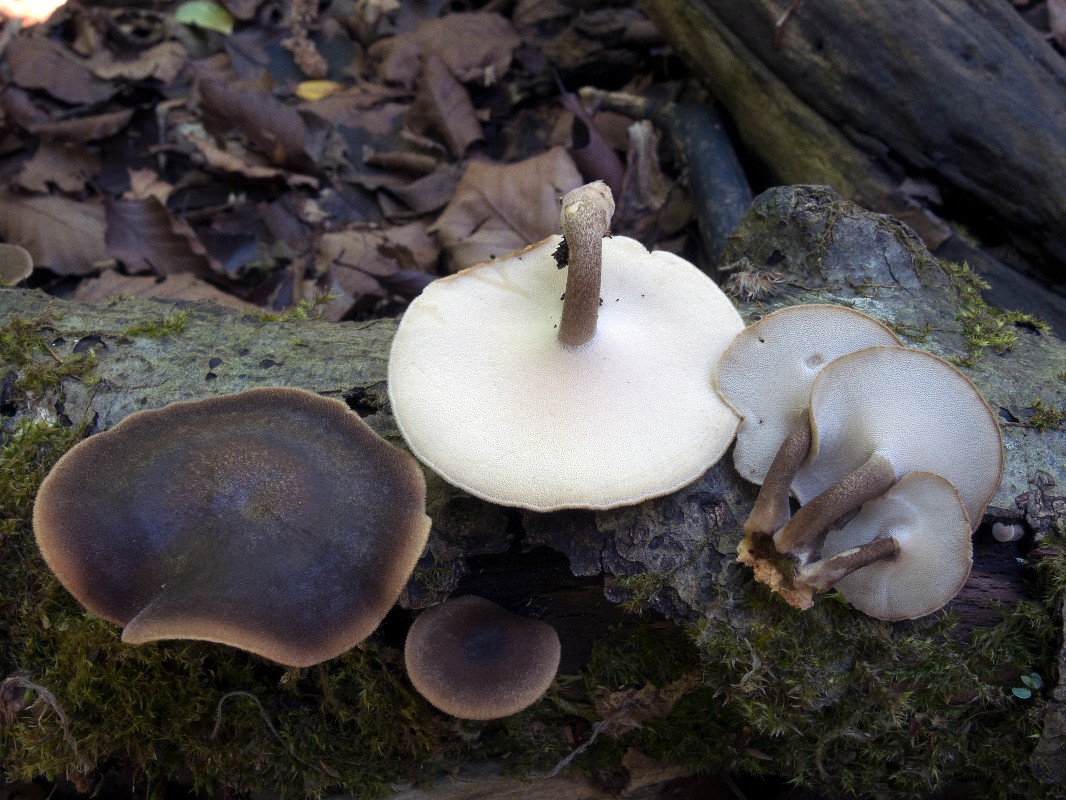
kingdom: Fungi
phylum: Basidiomycota
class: Agaricomycetes
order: Polyporales
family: Polyporaceae
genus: Lentinus
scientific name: Lentinus substrictus
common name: forårs-stilkporesvamp
